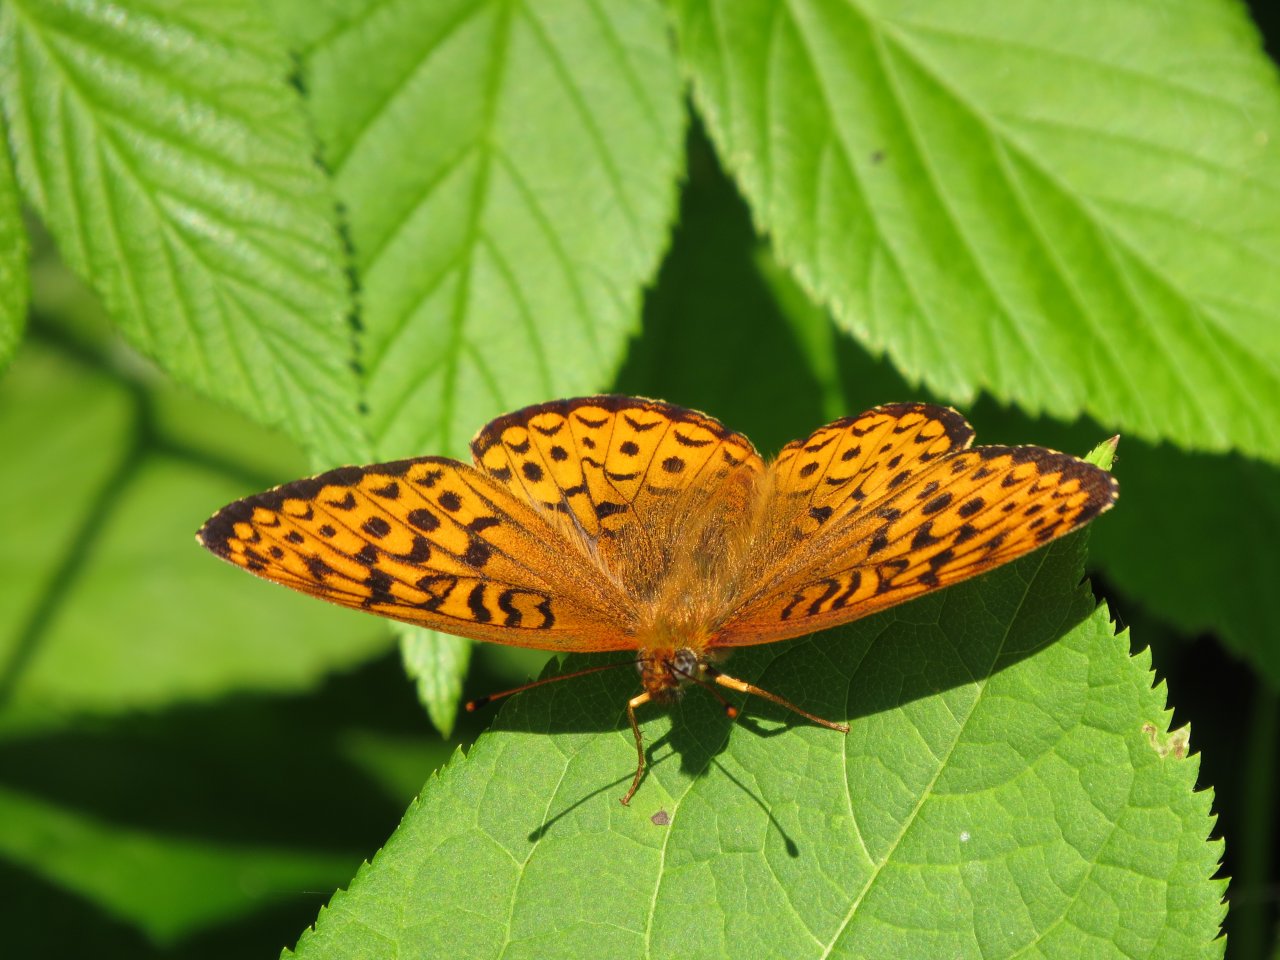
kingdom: Animalia
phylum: Arthropoda
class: Insecta
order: Lepidoptera
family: Nymphalidae
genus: Speyeria
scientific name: Speyeria atlantis
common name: Atlantis Fritillary
